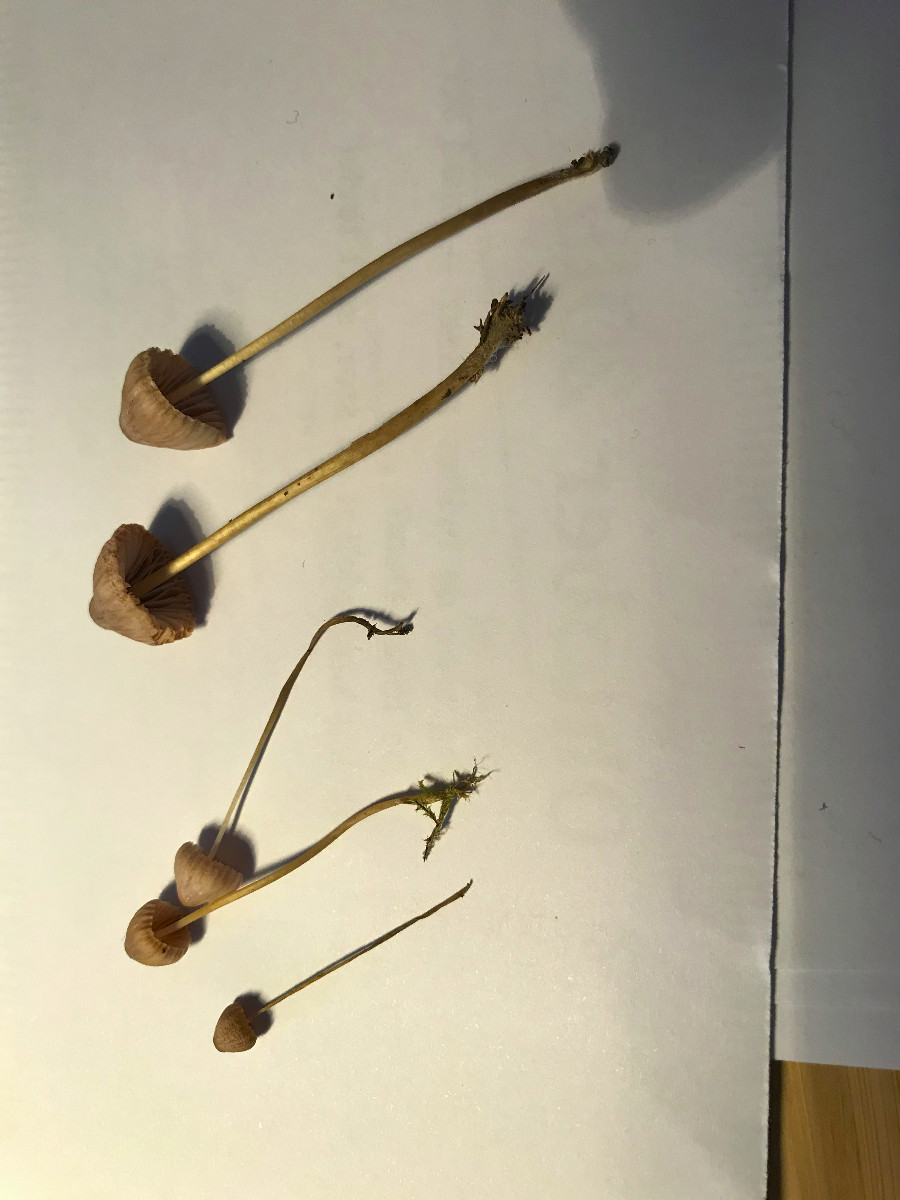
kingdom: Fungi
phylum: Basidiomycota
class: Agaricomycetes
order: Agaricales
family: Mycenaceae
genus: Mycena
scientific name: Mycena metata
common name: rødlig huesvamp
